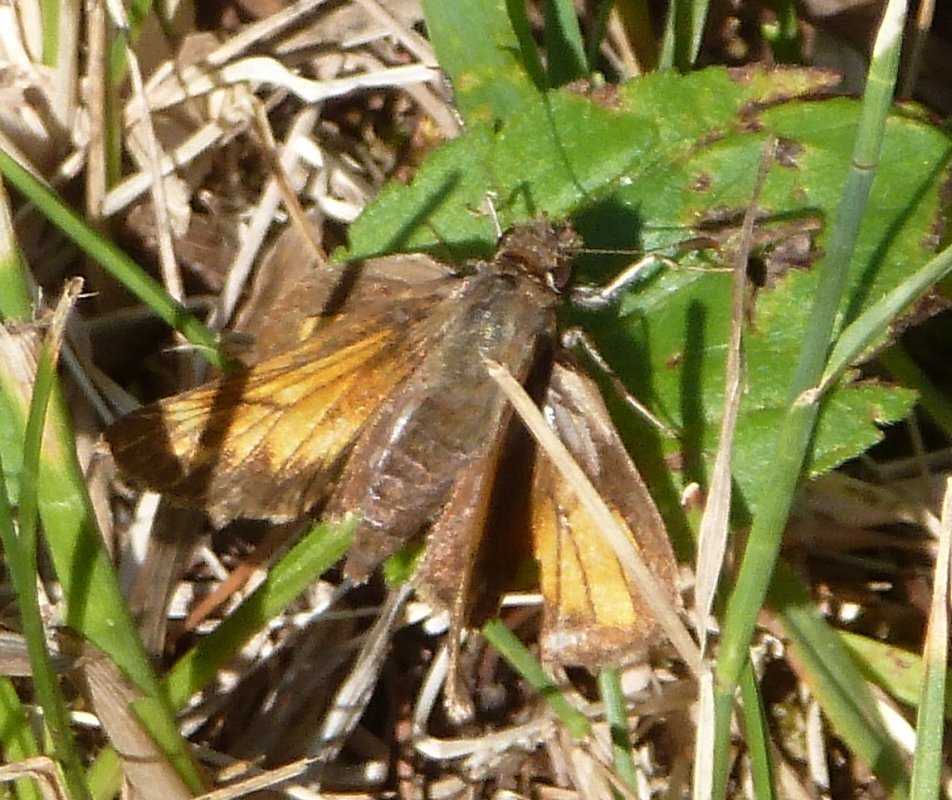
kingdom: Animalia
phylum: Arthropoda
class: Insecta
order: Lepidoptera
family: Hesperiidae
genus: Lon
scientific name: Lon hobomok
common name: Hobomok Skipper
